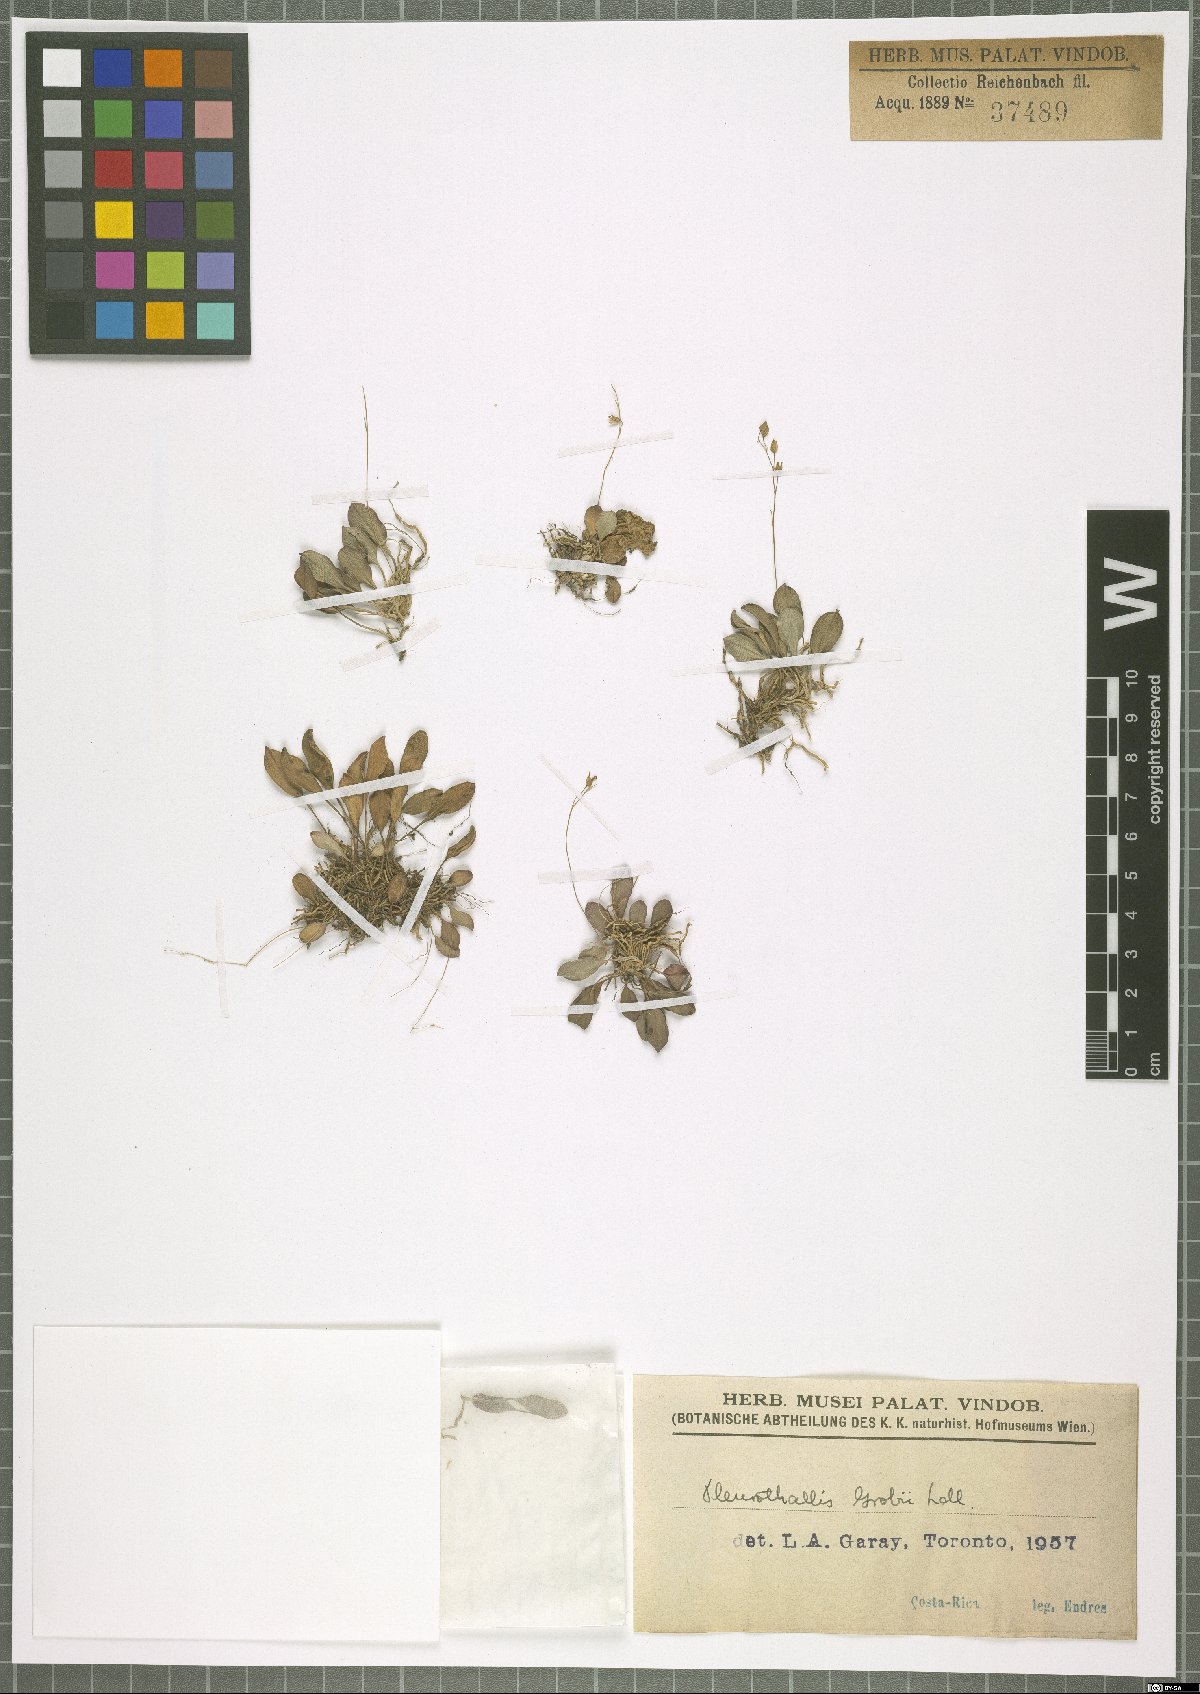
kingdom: Plantae
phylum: Tracheophyta
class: Liliopsida
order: Asparagales
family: Orchidaceae
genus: Specklinia
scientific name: Specklinia grobyi
